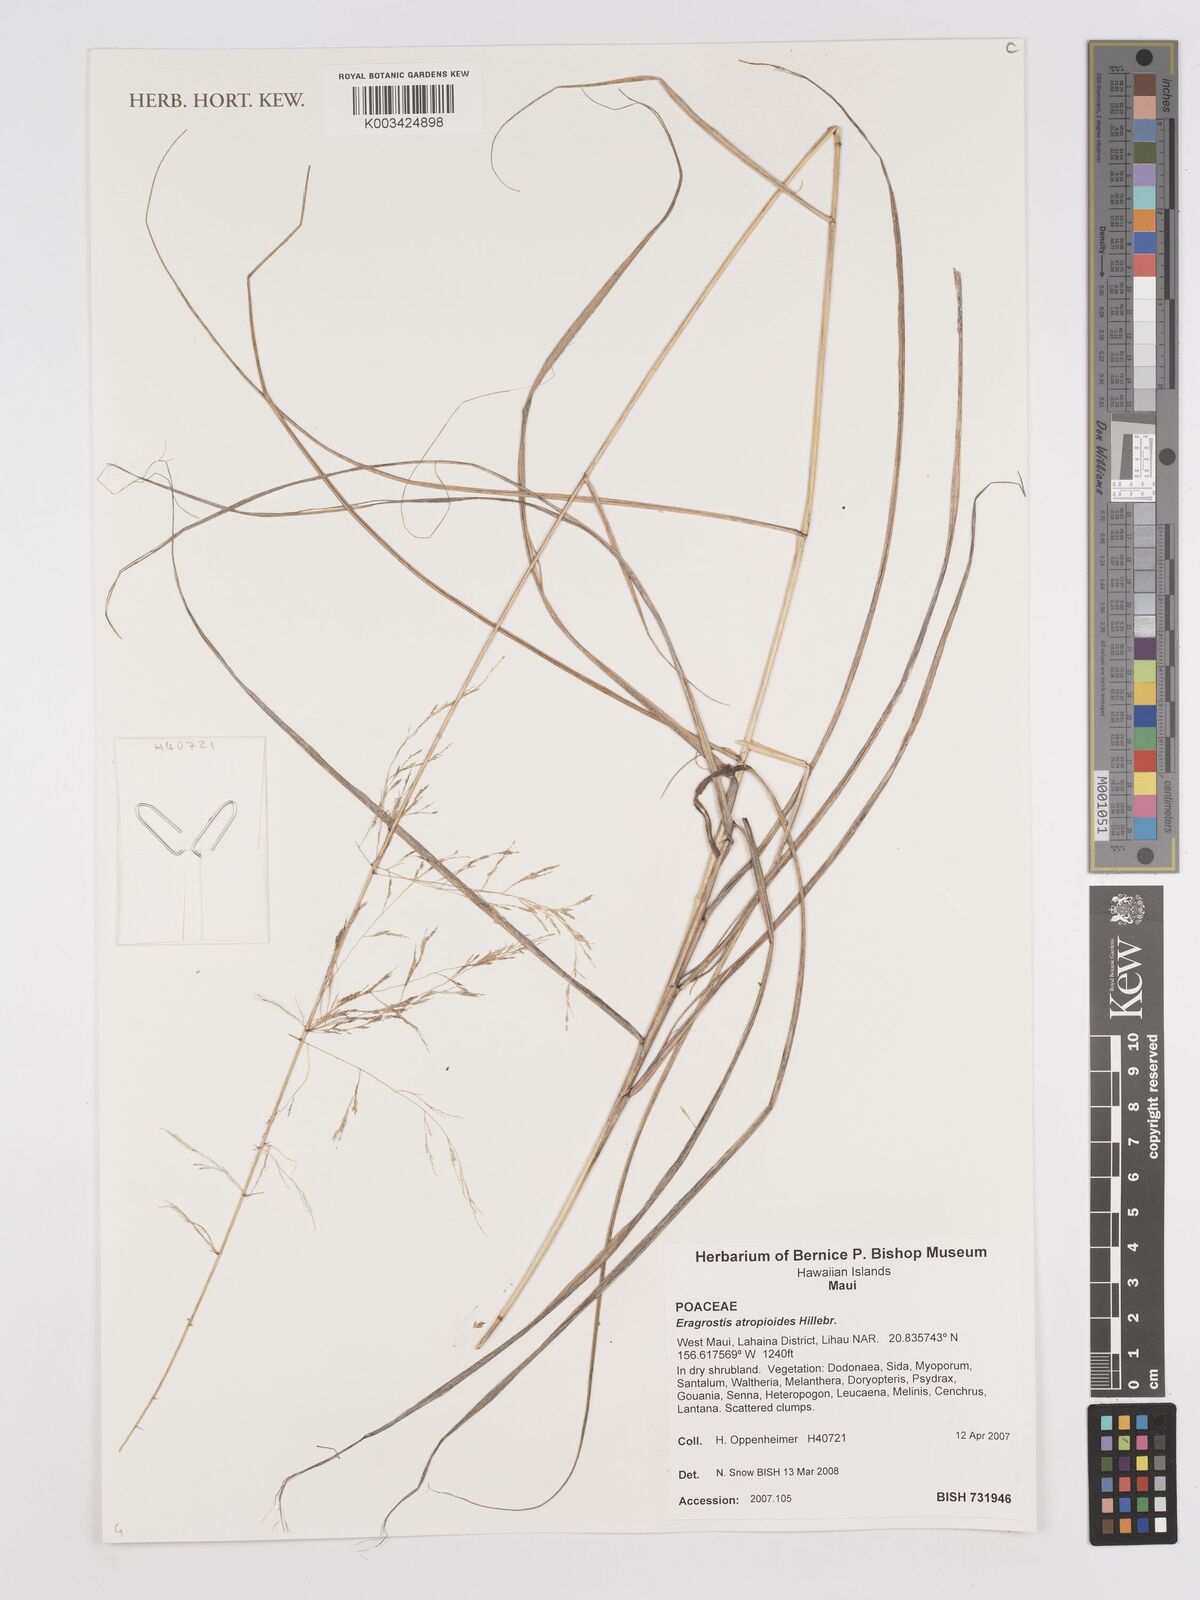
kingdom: Plantae
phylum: Tracheophyta
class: Liliopsida
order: Poales
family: Poaceae
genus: Eragrostis
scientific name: Eragrostis atropioides
